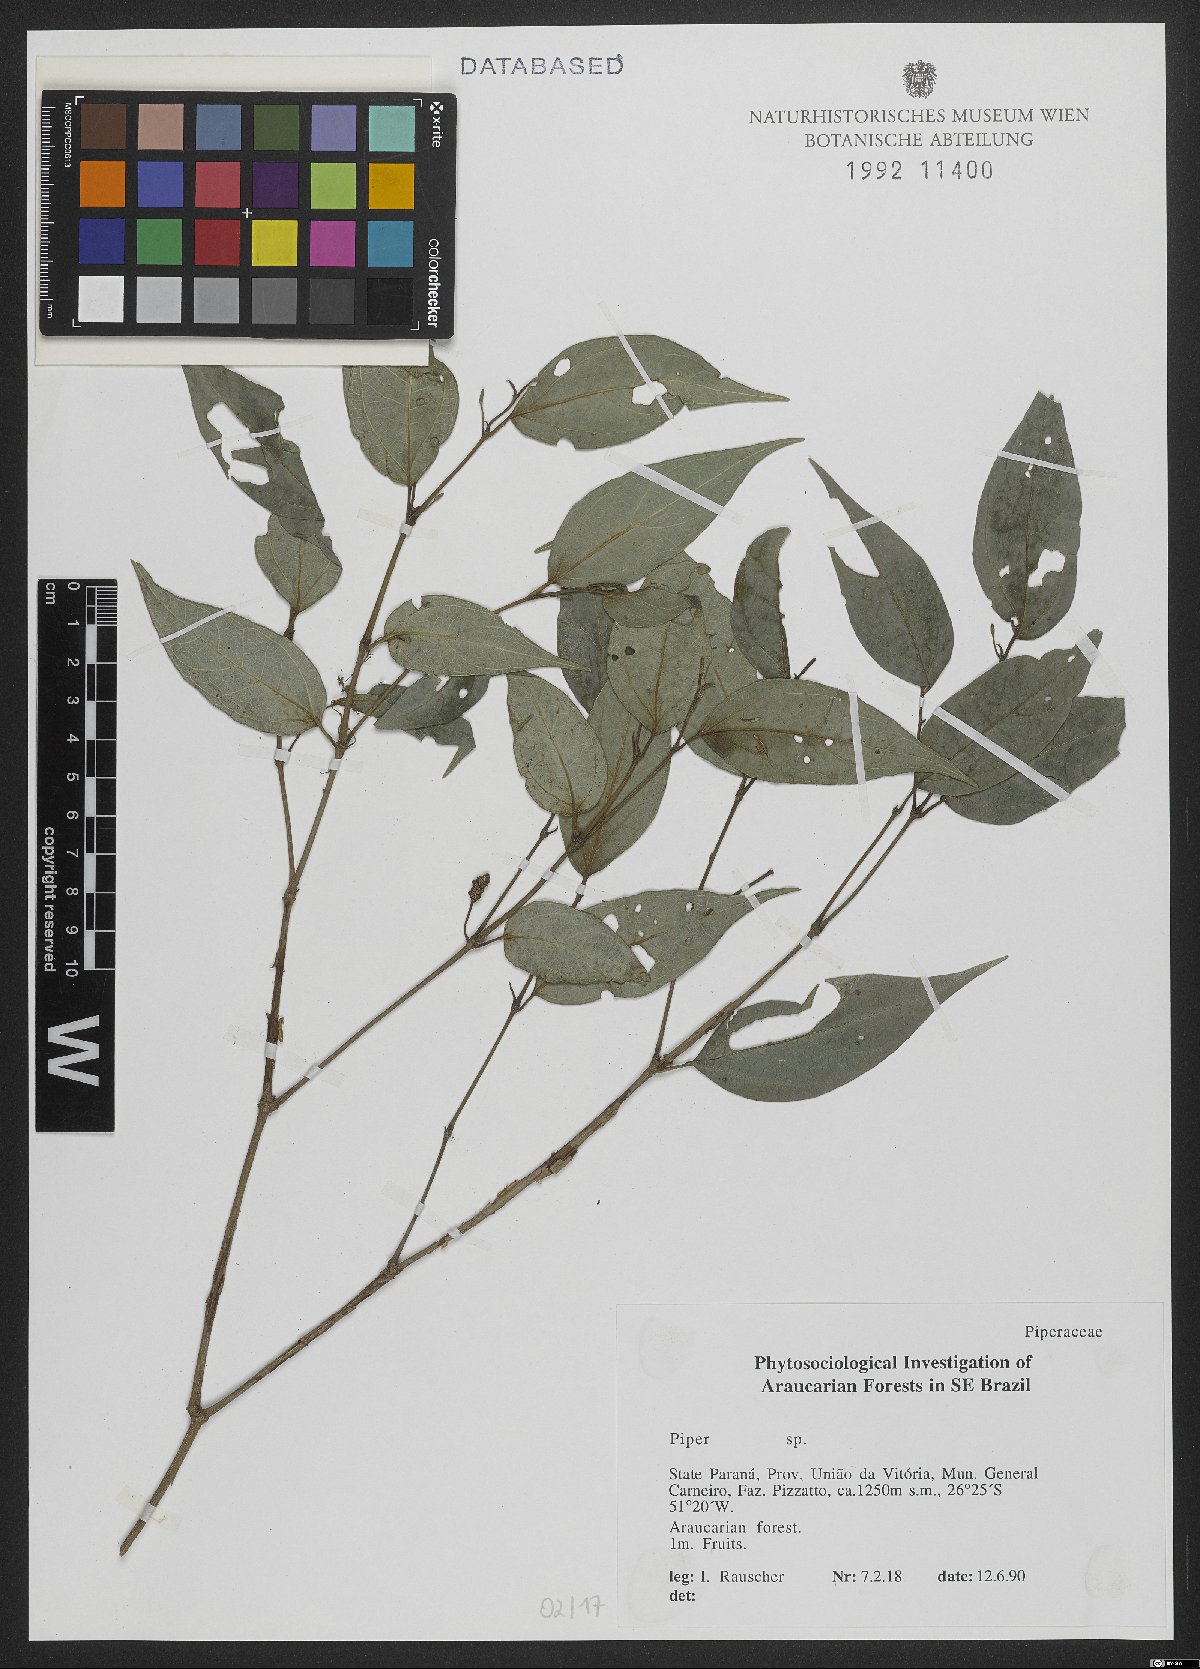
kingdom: Plantae
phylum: Tracheophyta
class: Magnoliopsida
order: Piperales
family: Piperaceae
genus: Piper
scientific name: Piper
